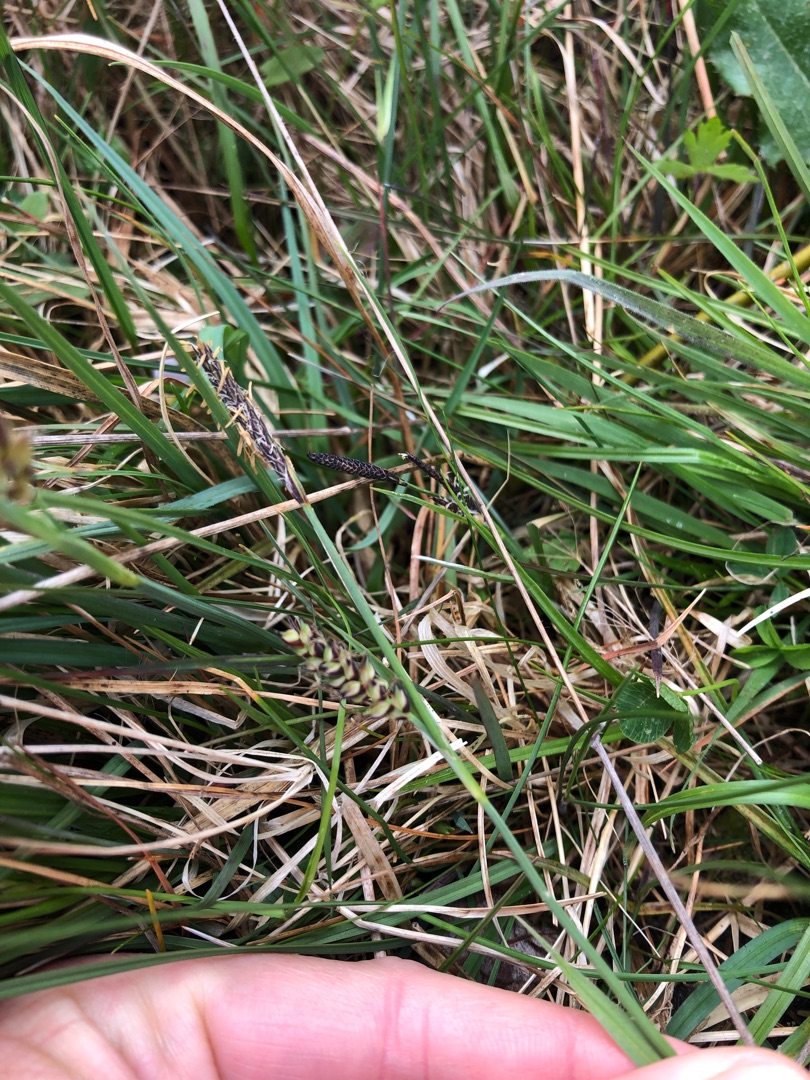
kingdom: Plantae
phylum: Tracheophyta
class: Liliopsida
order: Poales
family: Cyperaceae
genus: Carex
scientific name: Carex panicea
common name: Hirse-star
